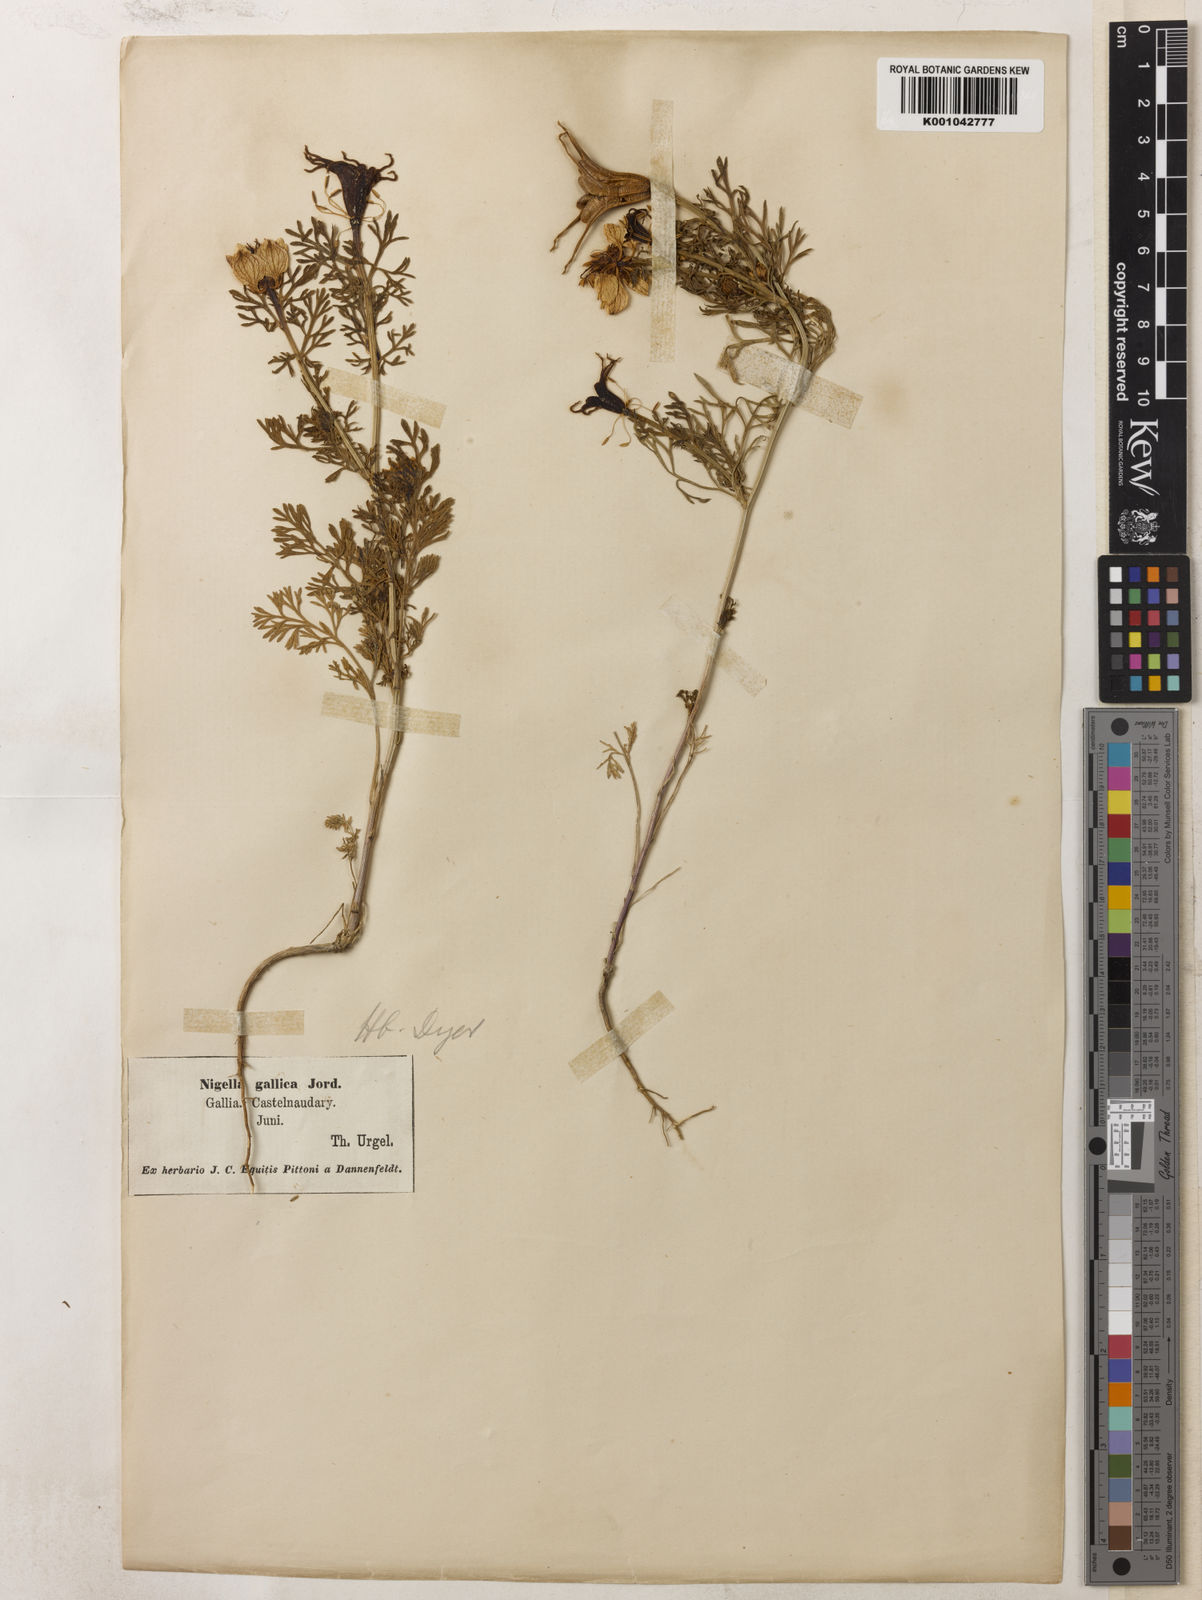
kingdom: Plantae
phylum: Tracheophyta
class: Magnoliopsida
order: Ranunculales
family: Ranunculaceae
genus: Nigella
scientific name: Nigella hispanica
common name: Fennel-flower
